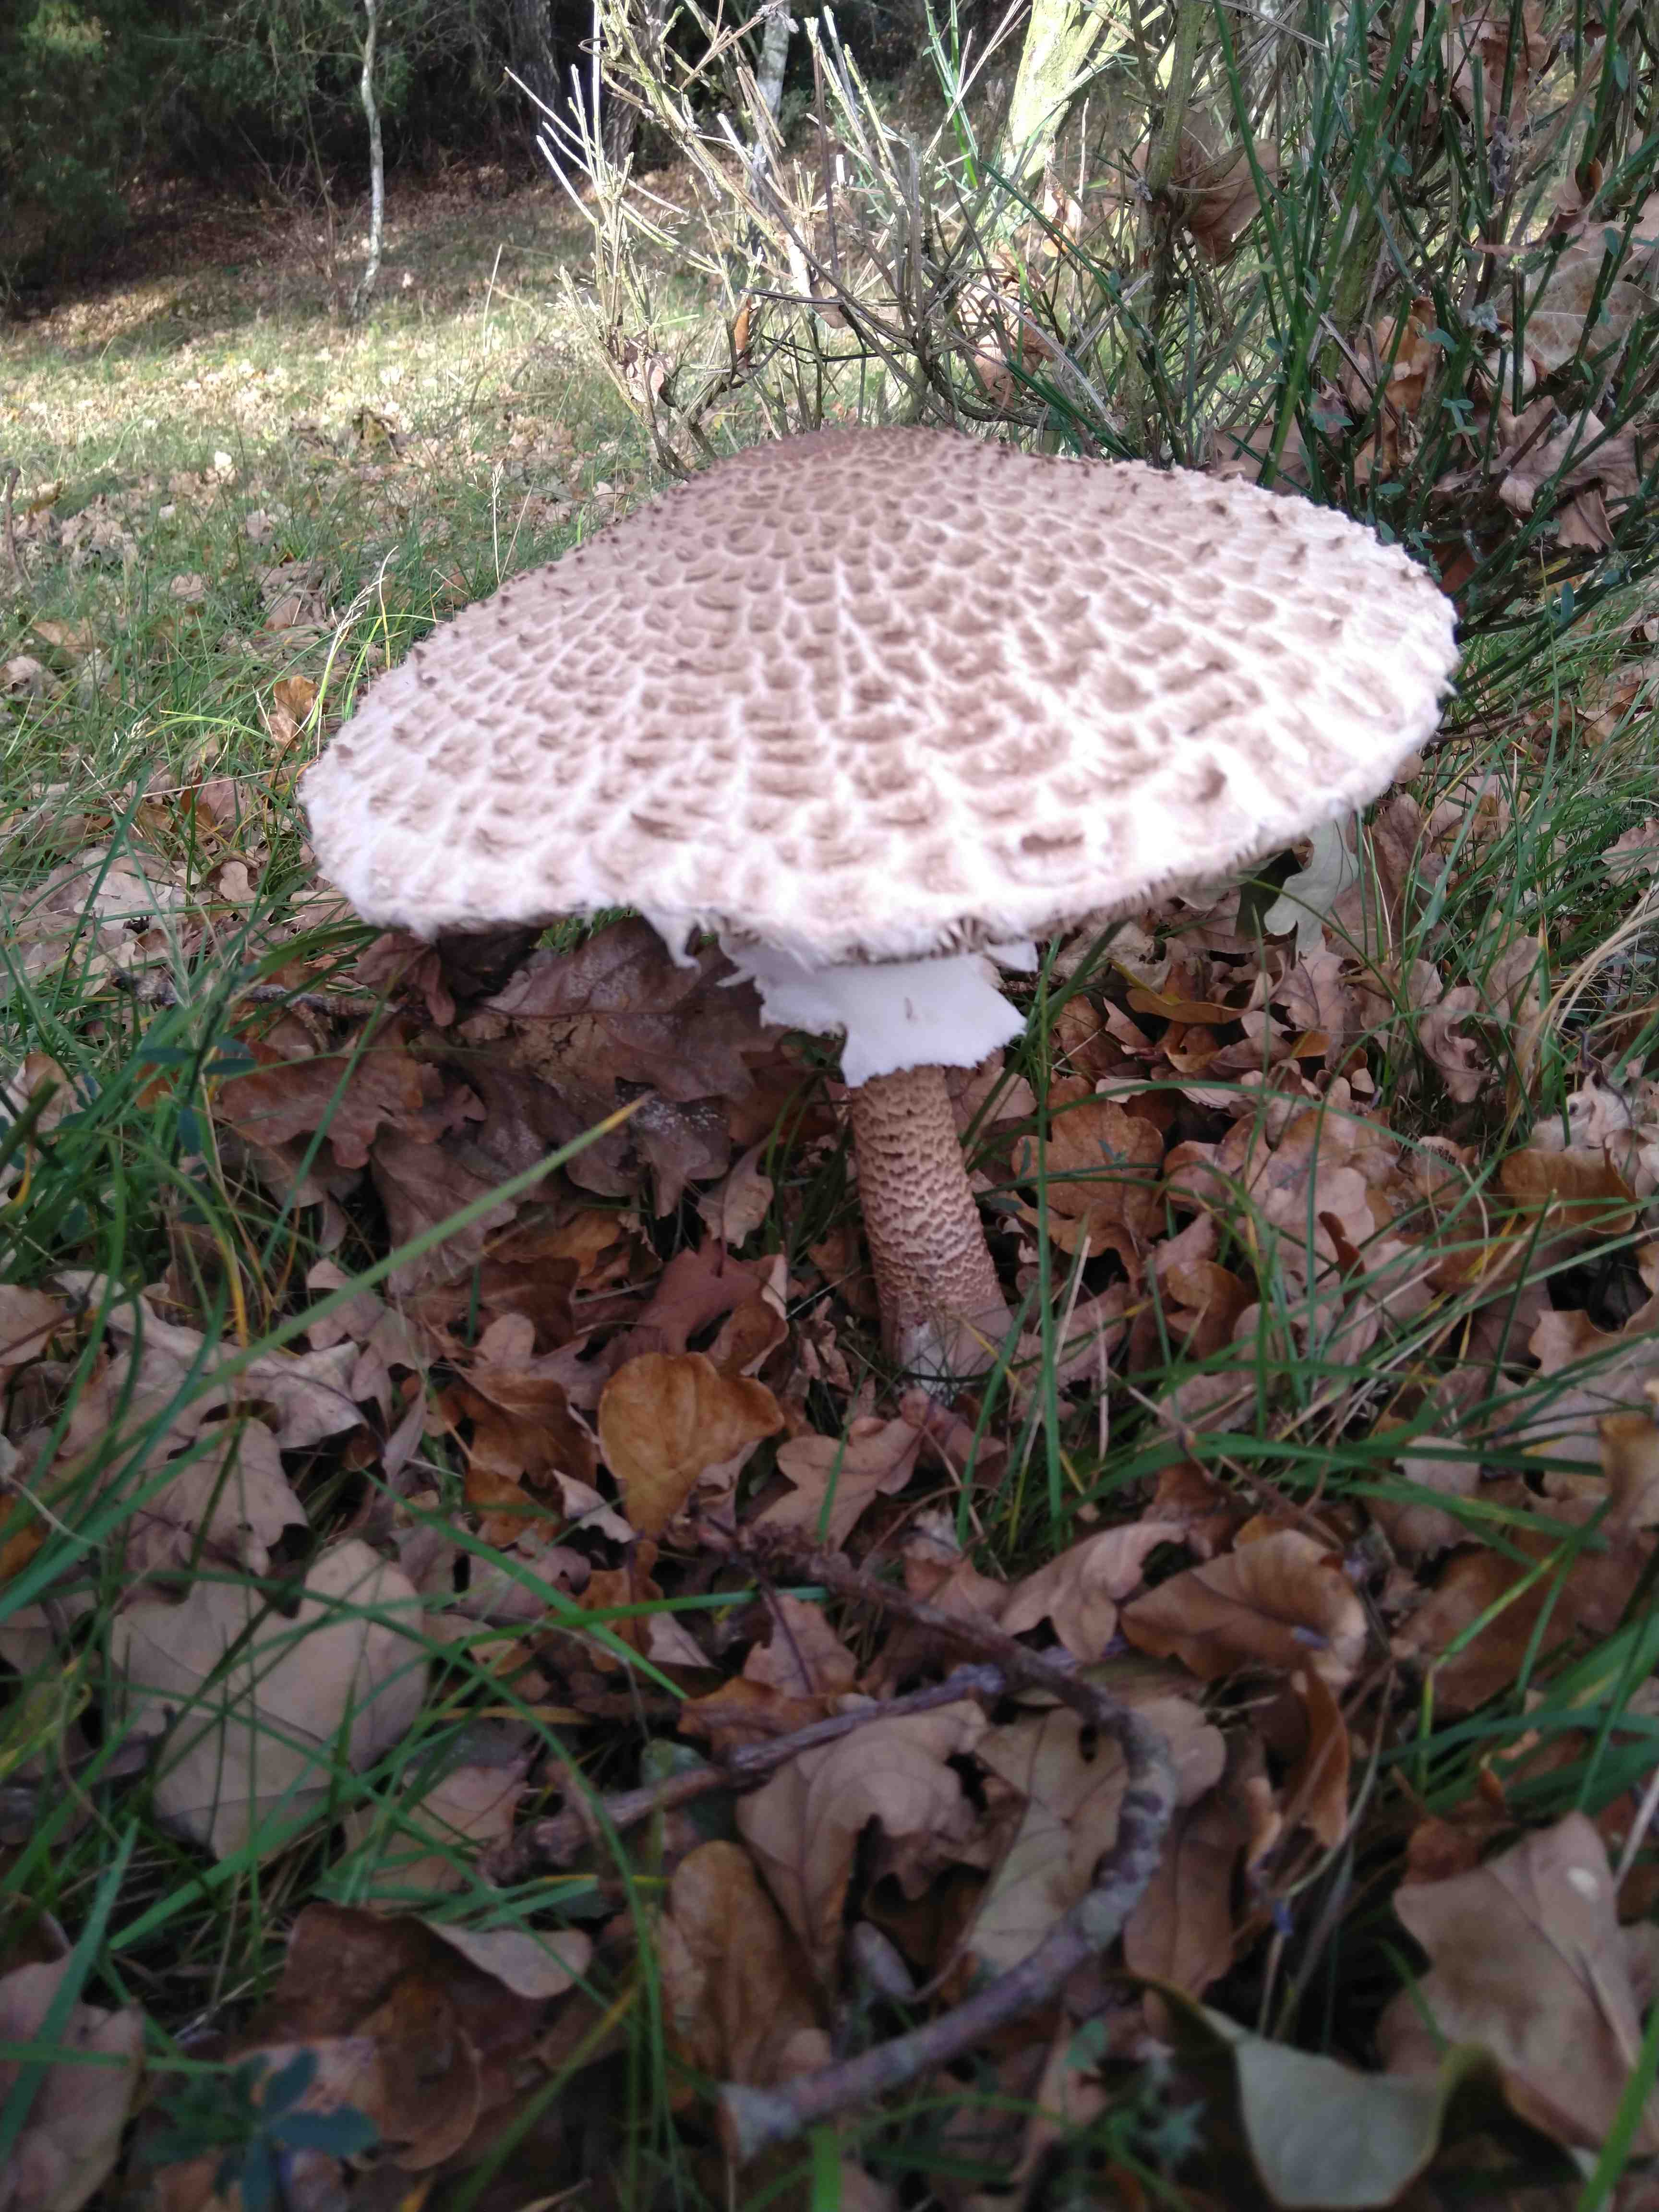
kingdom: Fungi
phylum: Basidiomycota
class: Agaricomycetes
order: Agaricales
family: Agaricaceae
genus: Macrolepiota
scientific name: Macrolepiota procera
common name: stor kæmpeparasolhat
